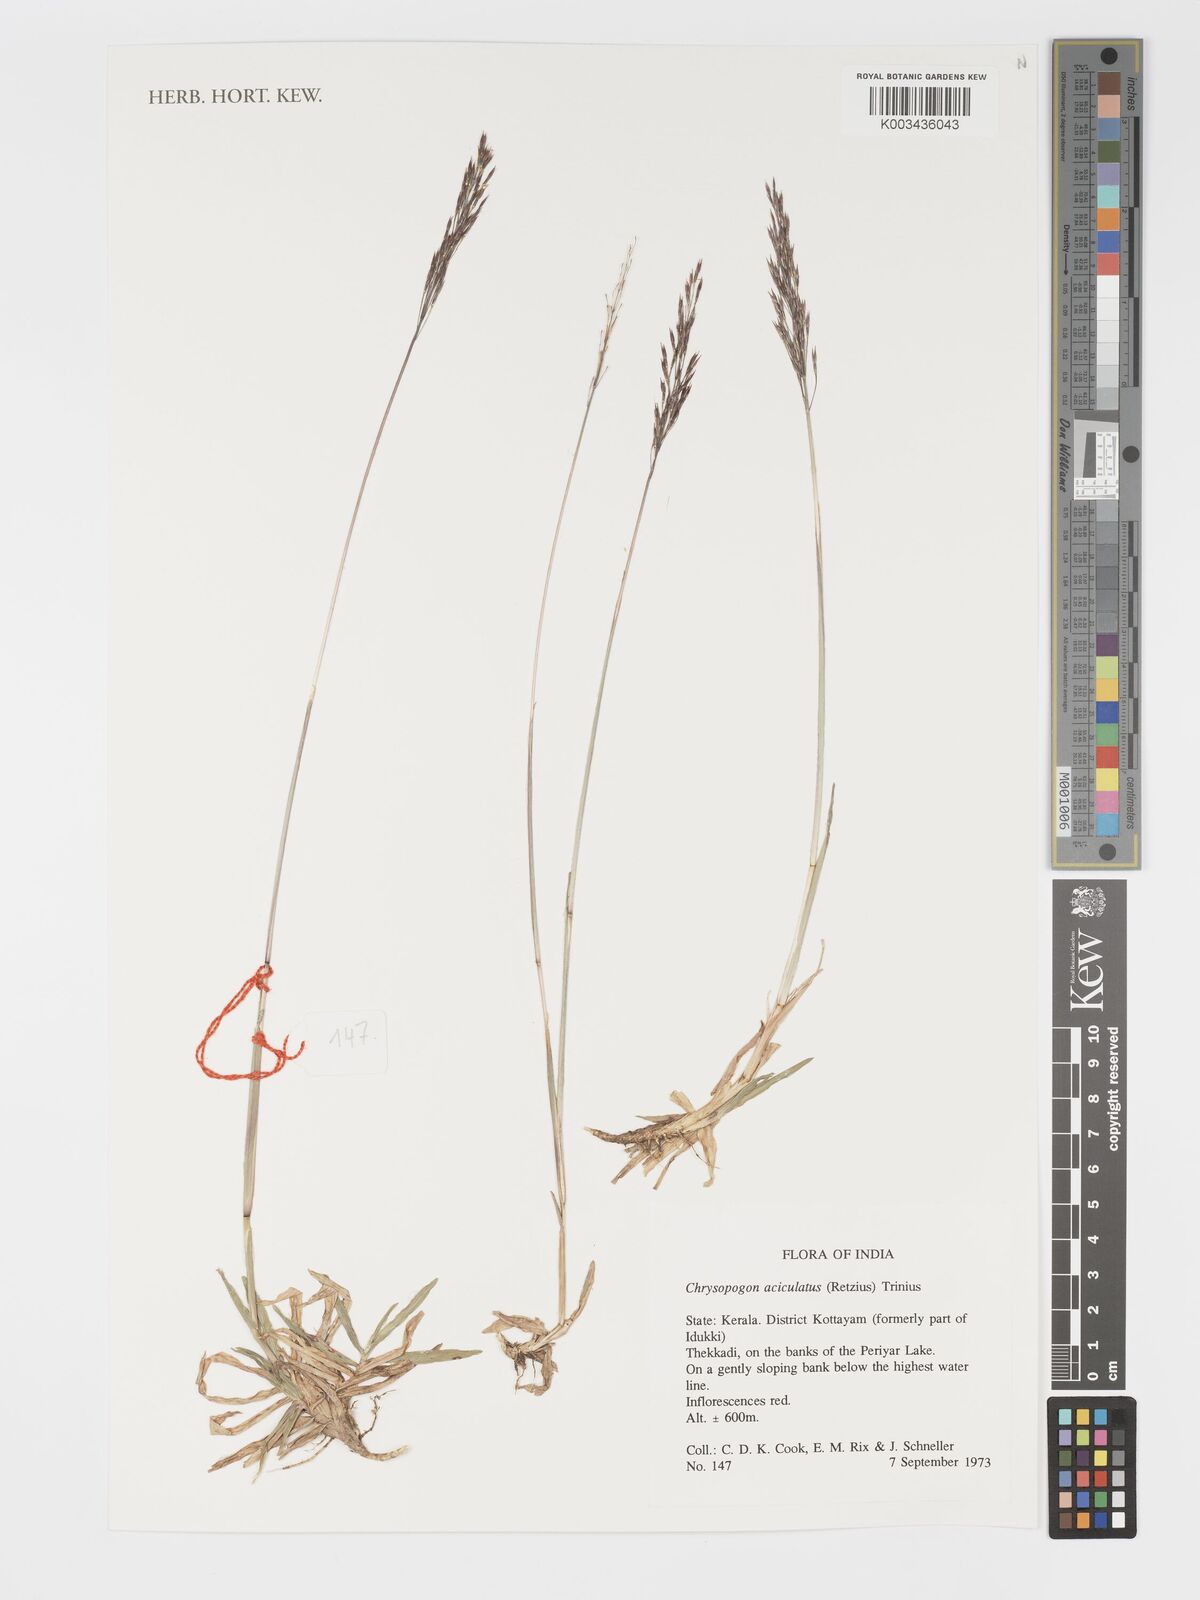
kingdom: Plantae
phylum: Tracheophyta
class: Liliopsida
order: Poales
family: Poaceae
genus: Chrysopogon
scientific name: Chrysopogon aciculatus
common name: Pilipiliula
